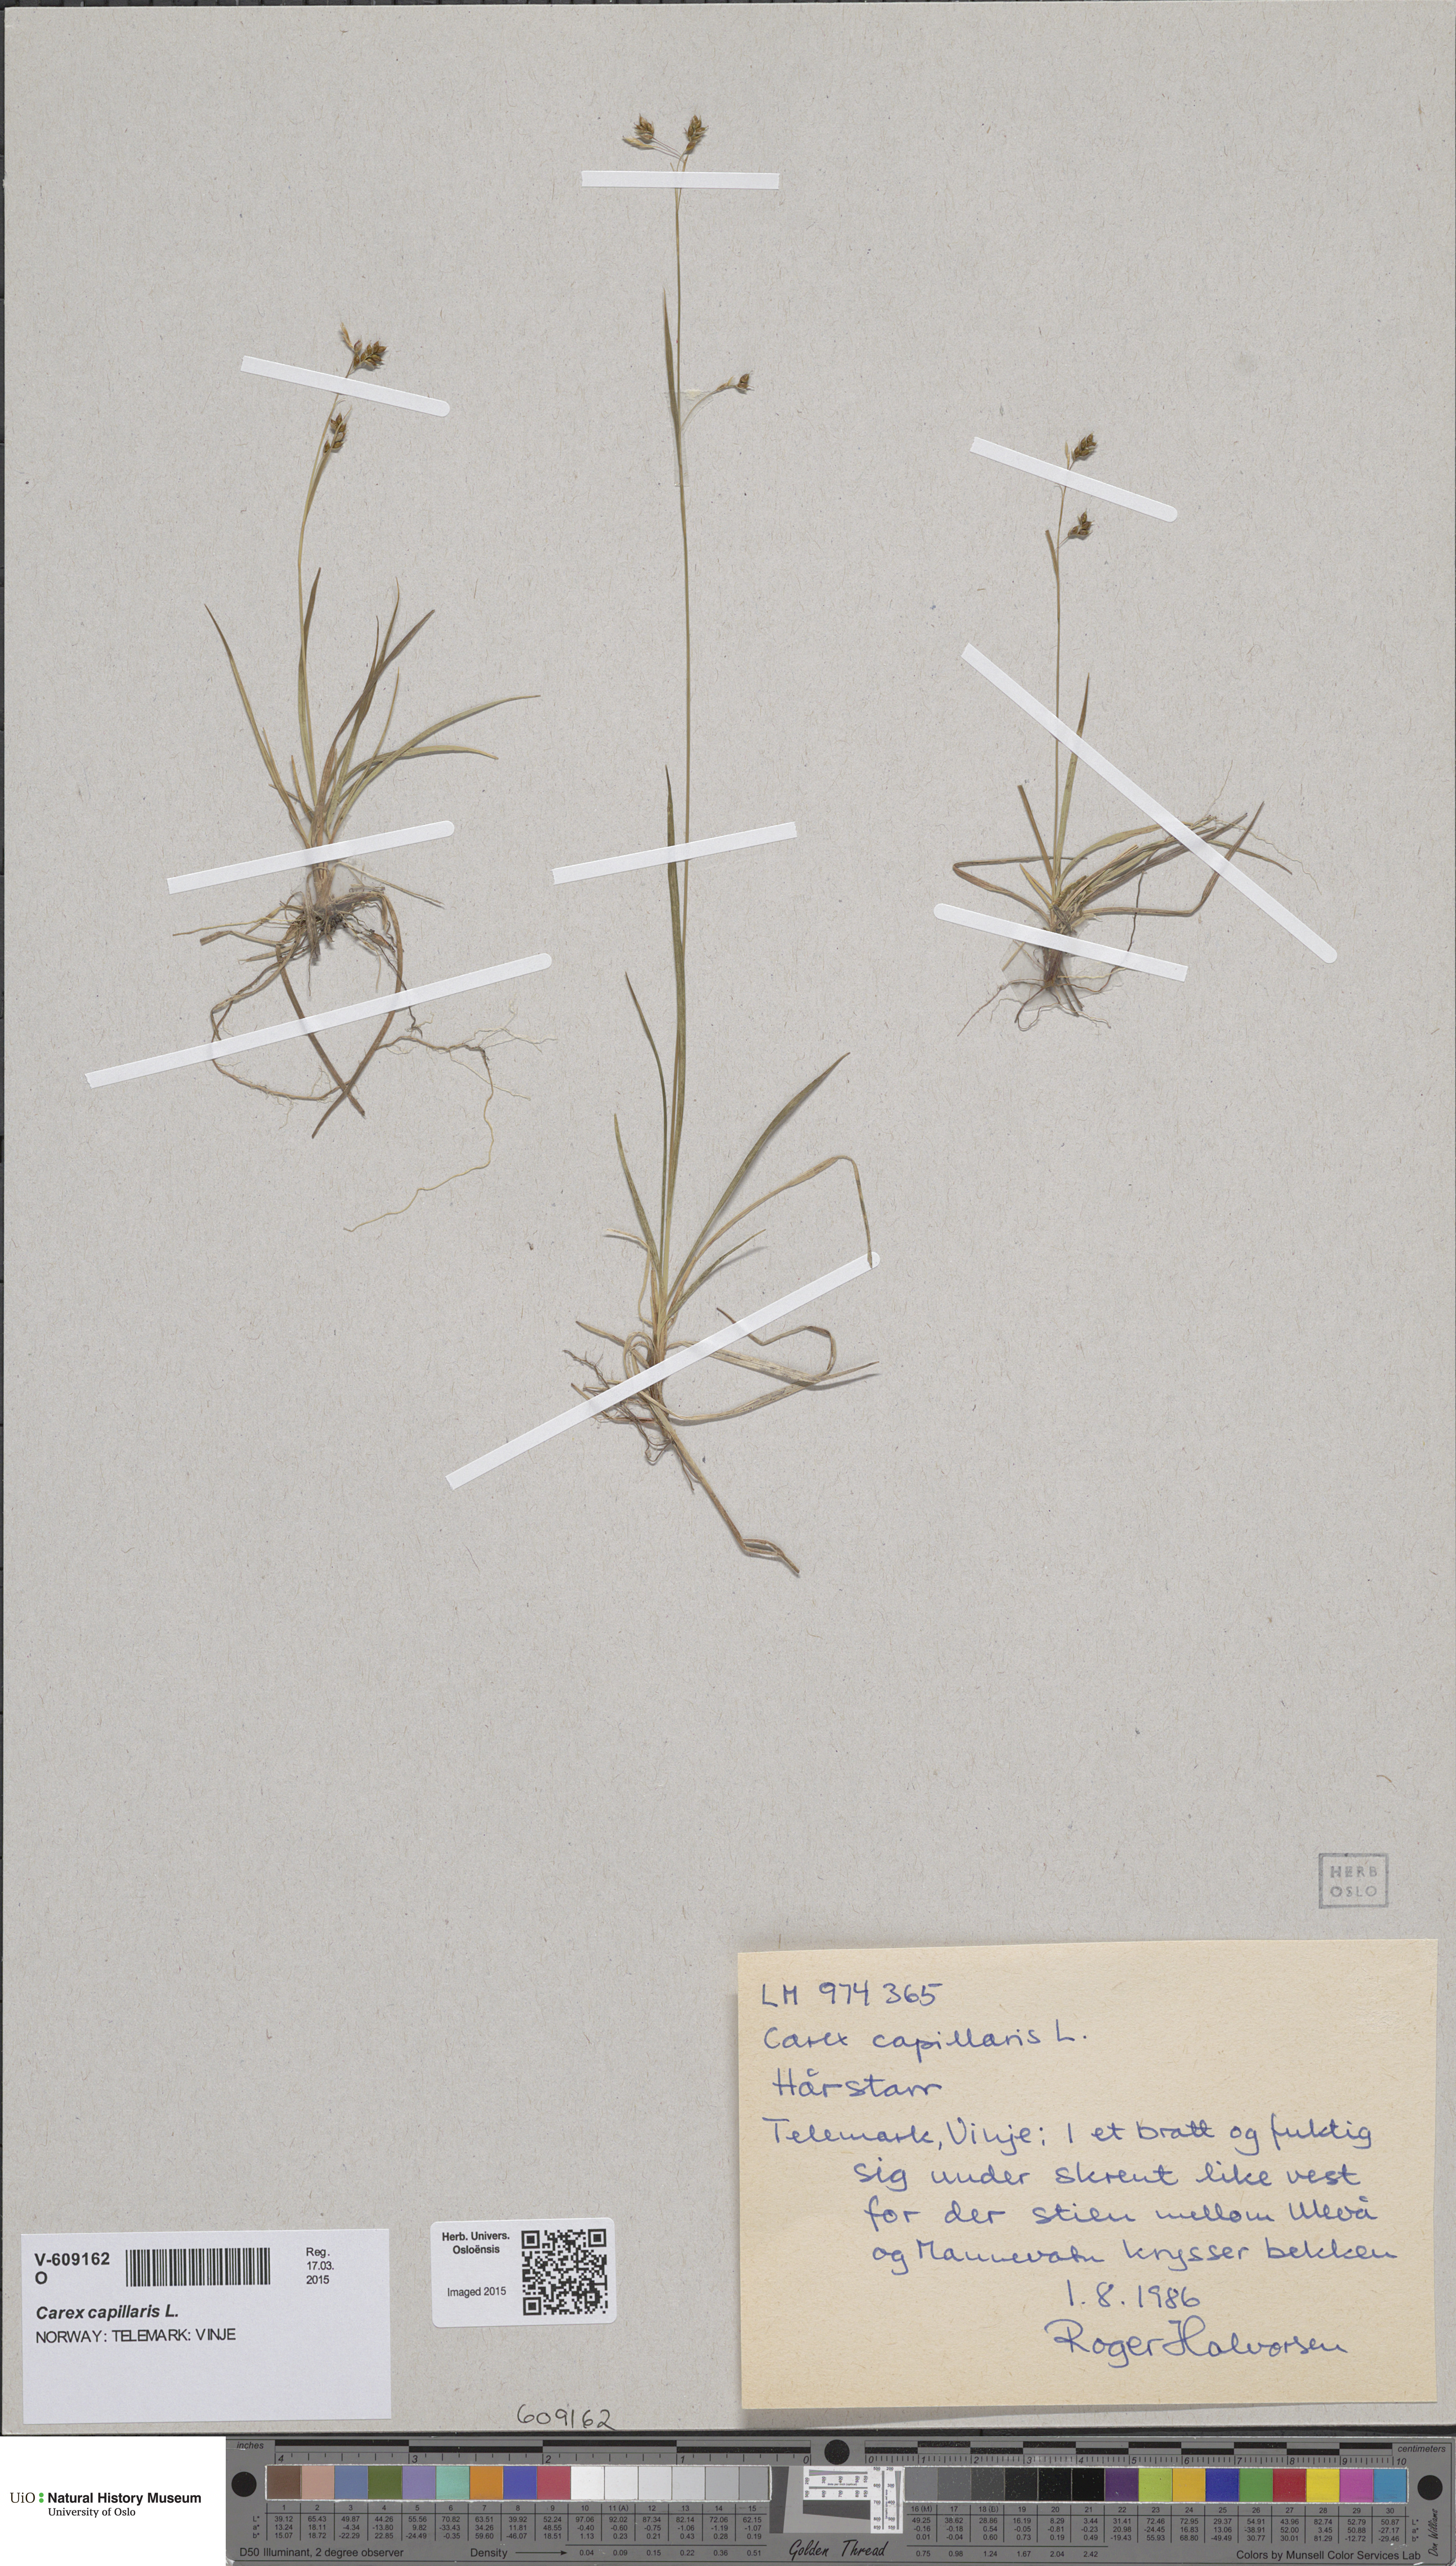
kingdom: Plantae
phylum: Tracheophyta
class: Liliopsida
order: Poales
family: Cyperaceae
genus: Carex
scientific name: Carex capillaris
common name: Hair sedge
